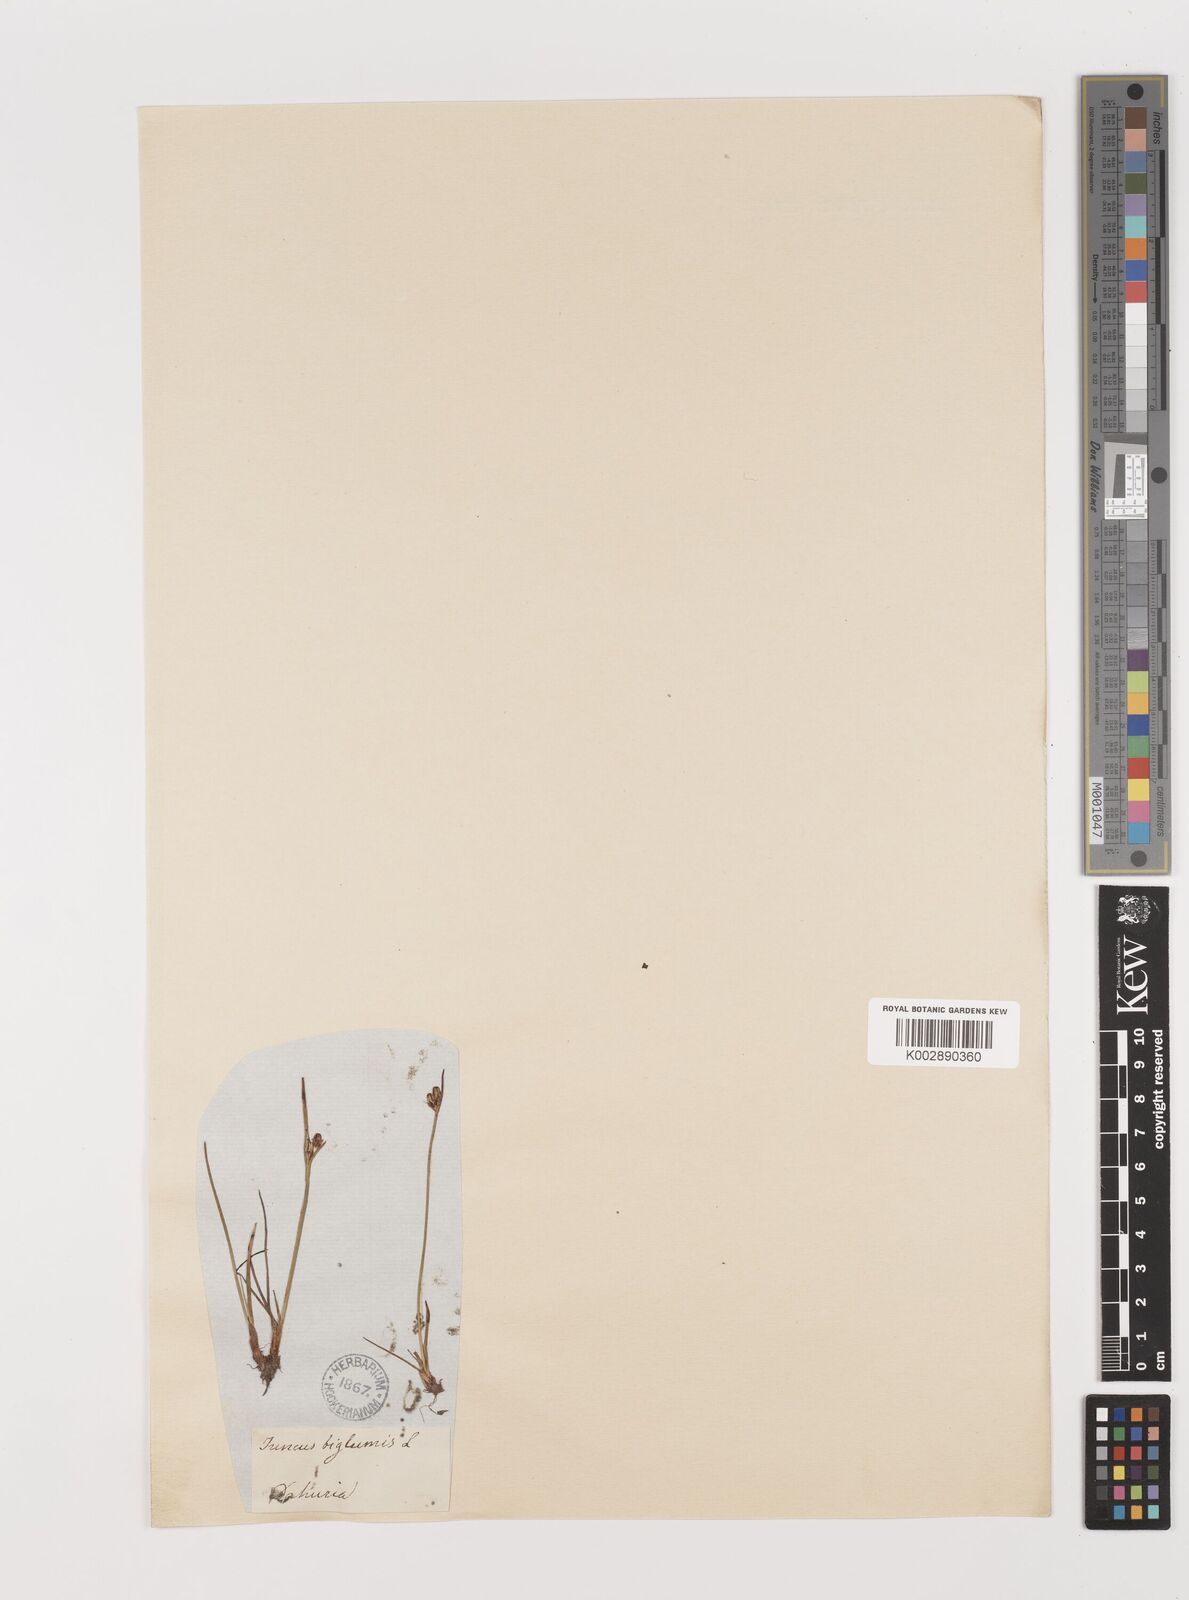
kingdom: Plantae
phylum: Tracheophyta
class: Liliopsida
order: Poales
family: Juncaceae
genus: Juncus
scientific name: Juncus biglumis
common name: Two-flowered rush
